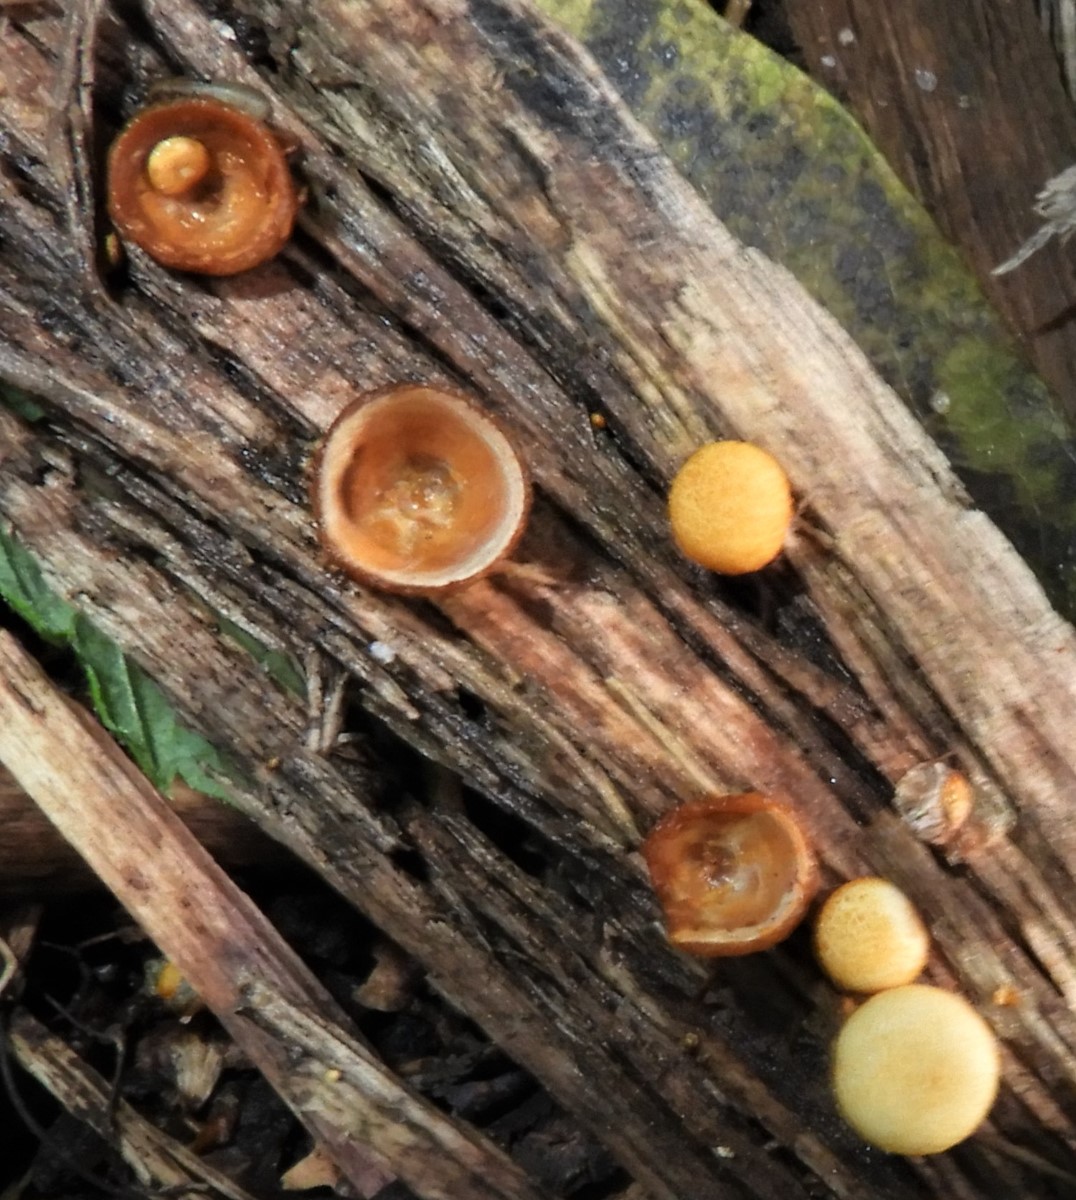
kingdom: Fungi
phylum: Basidiomycota
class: Agaricomycetes
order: Agaricales
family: Nidulariaceae
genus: Crucibulum
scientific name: Crucibulum crucibuliforme
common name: krukkesvamp
